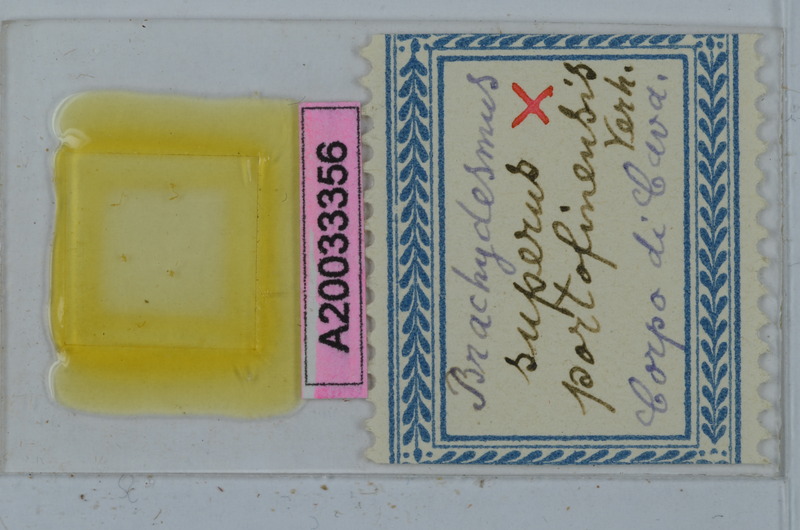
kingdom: Animalia
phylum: Arthropoda
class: Diplopoda
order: Polydesmida
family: Polydesmidae
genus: Brachydesmus
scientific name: Brachydesmus superus
